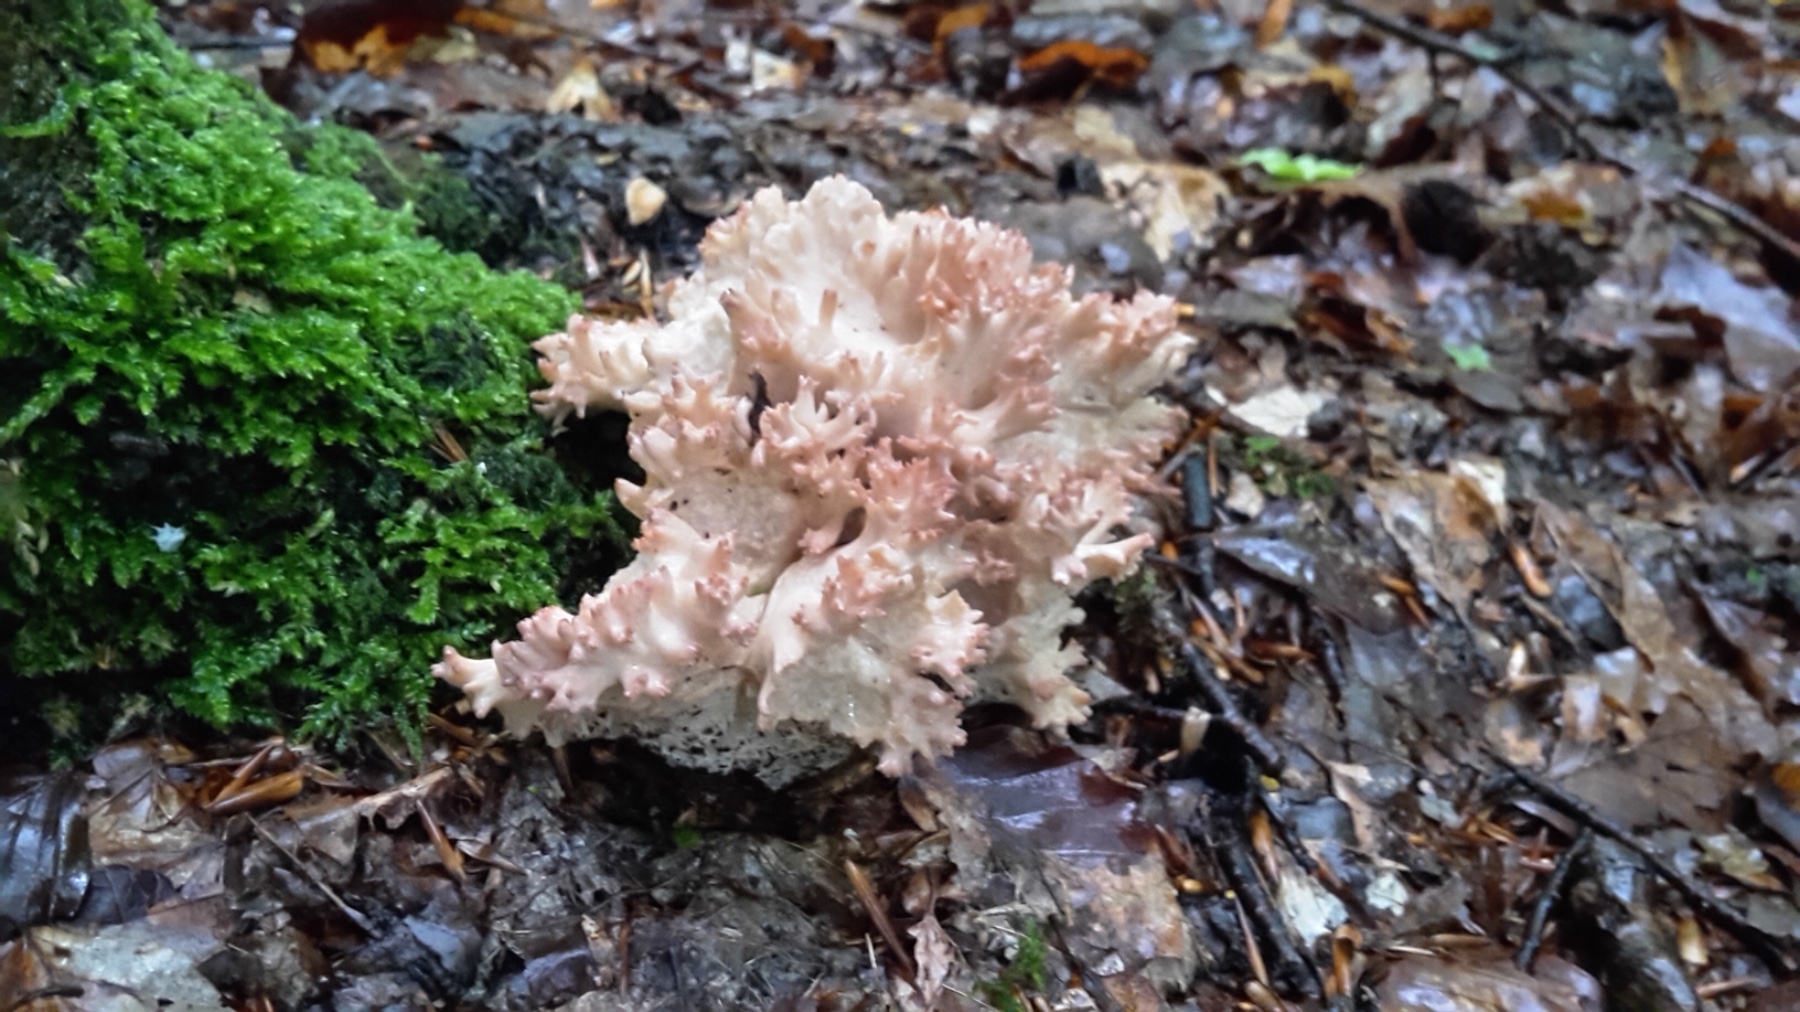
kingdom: Fungi
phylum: Basidiomycota
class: Agaricomycetes
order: Gomphales
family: Gomphaceae
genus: Ramaria
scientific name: Ramaria botrytis
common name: drue-koralsvamp
